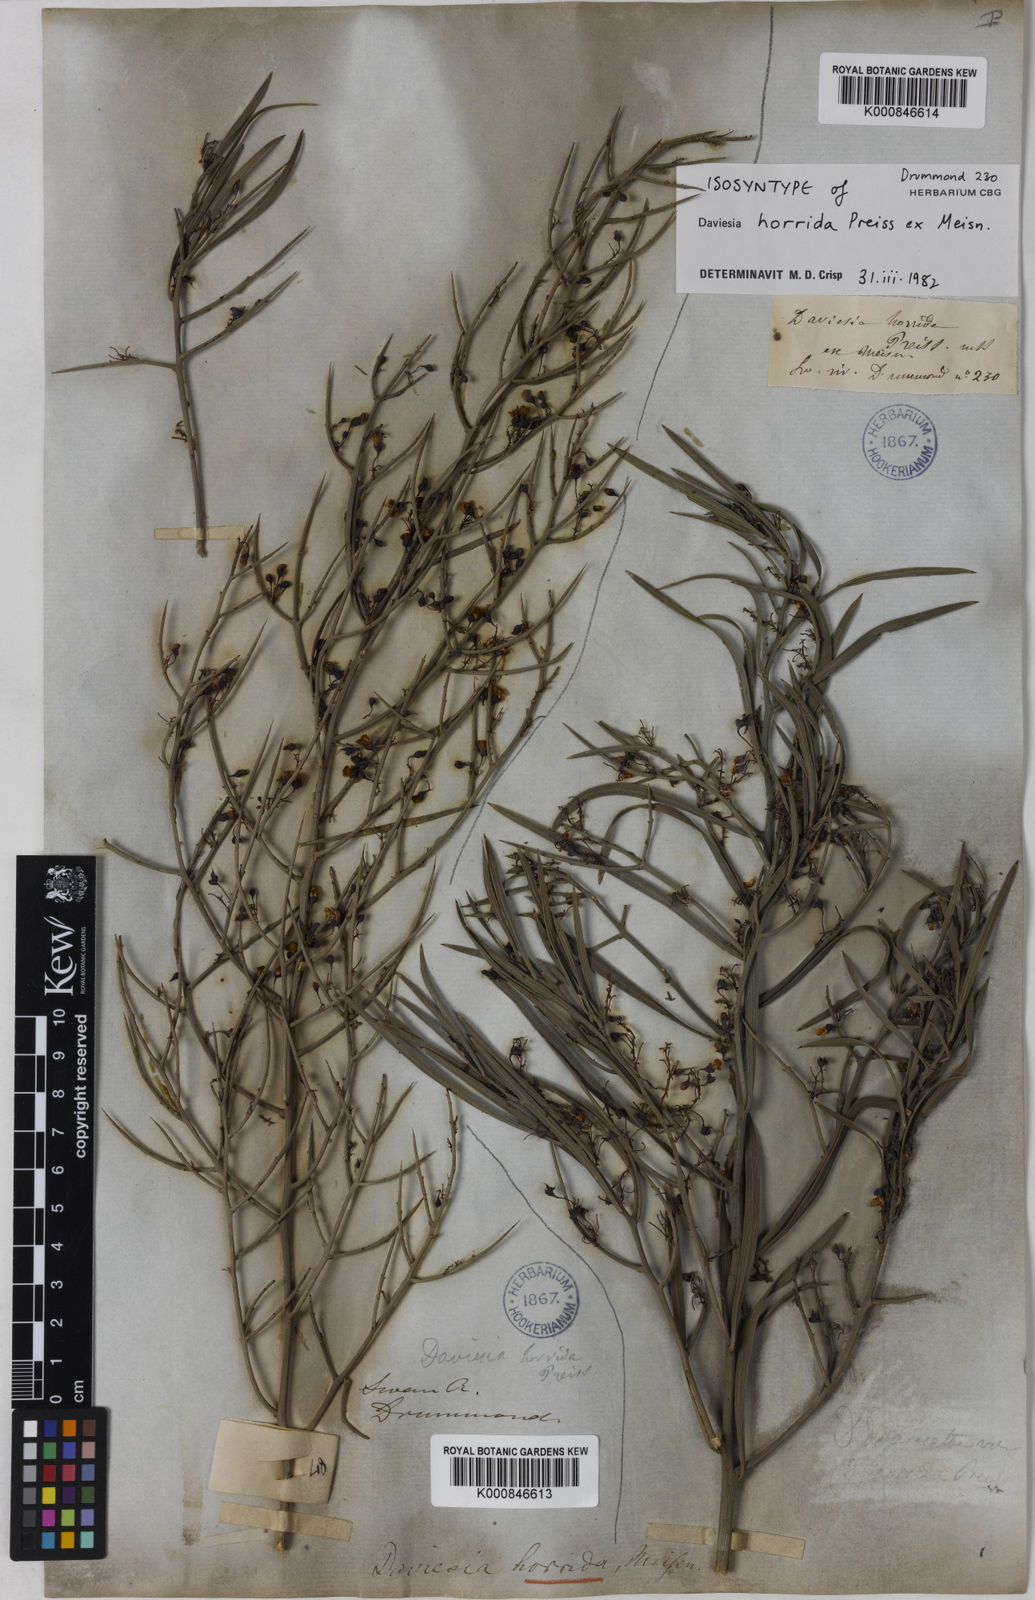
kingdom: Plantae
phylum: Tracheophyta
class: Magnoliopsida
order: Fabales
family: Fabaceae
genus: Daviesia
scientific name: Daviesia horrida
